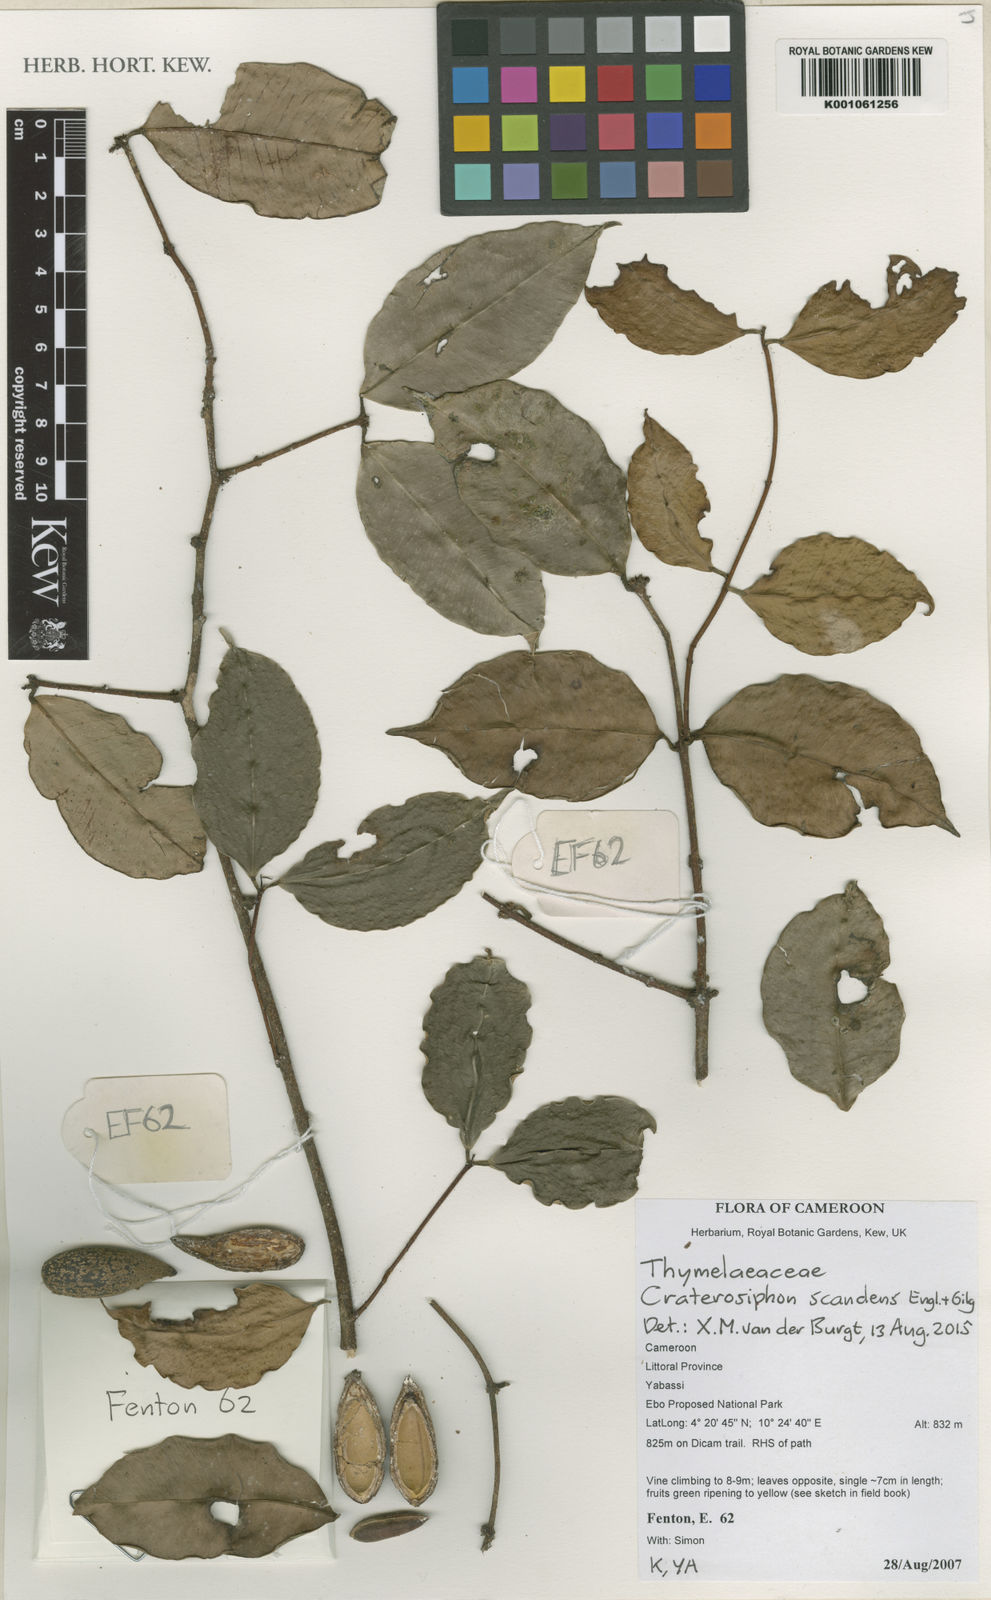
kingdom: Plantae
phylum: Tracheophyta
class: Magnoliopsida
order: Malvales
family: Thymelaeaceae
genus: Craterosiphon
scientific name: Craterosiphon scandens
